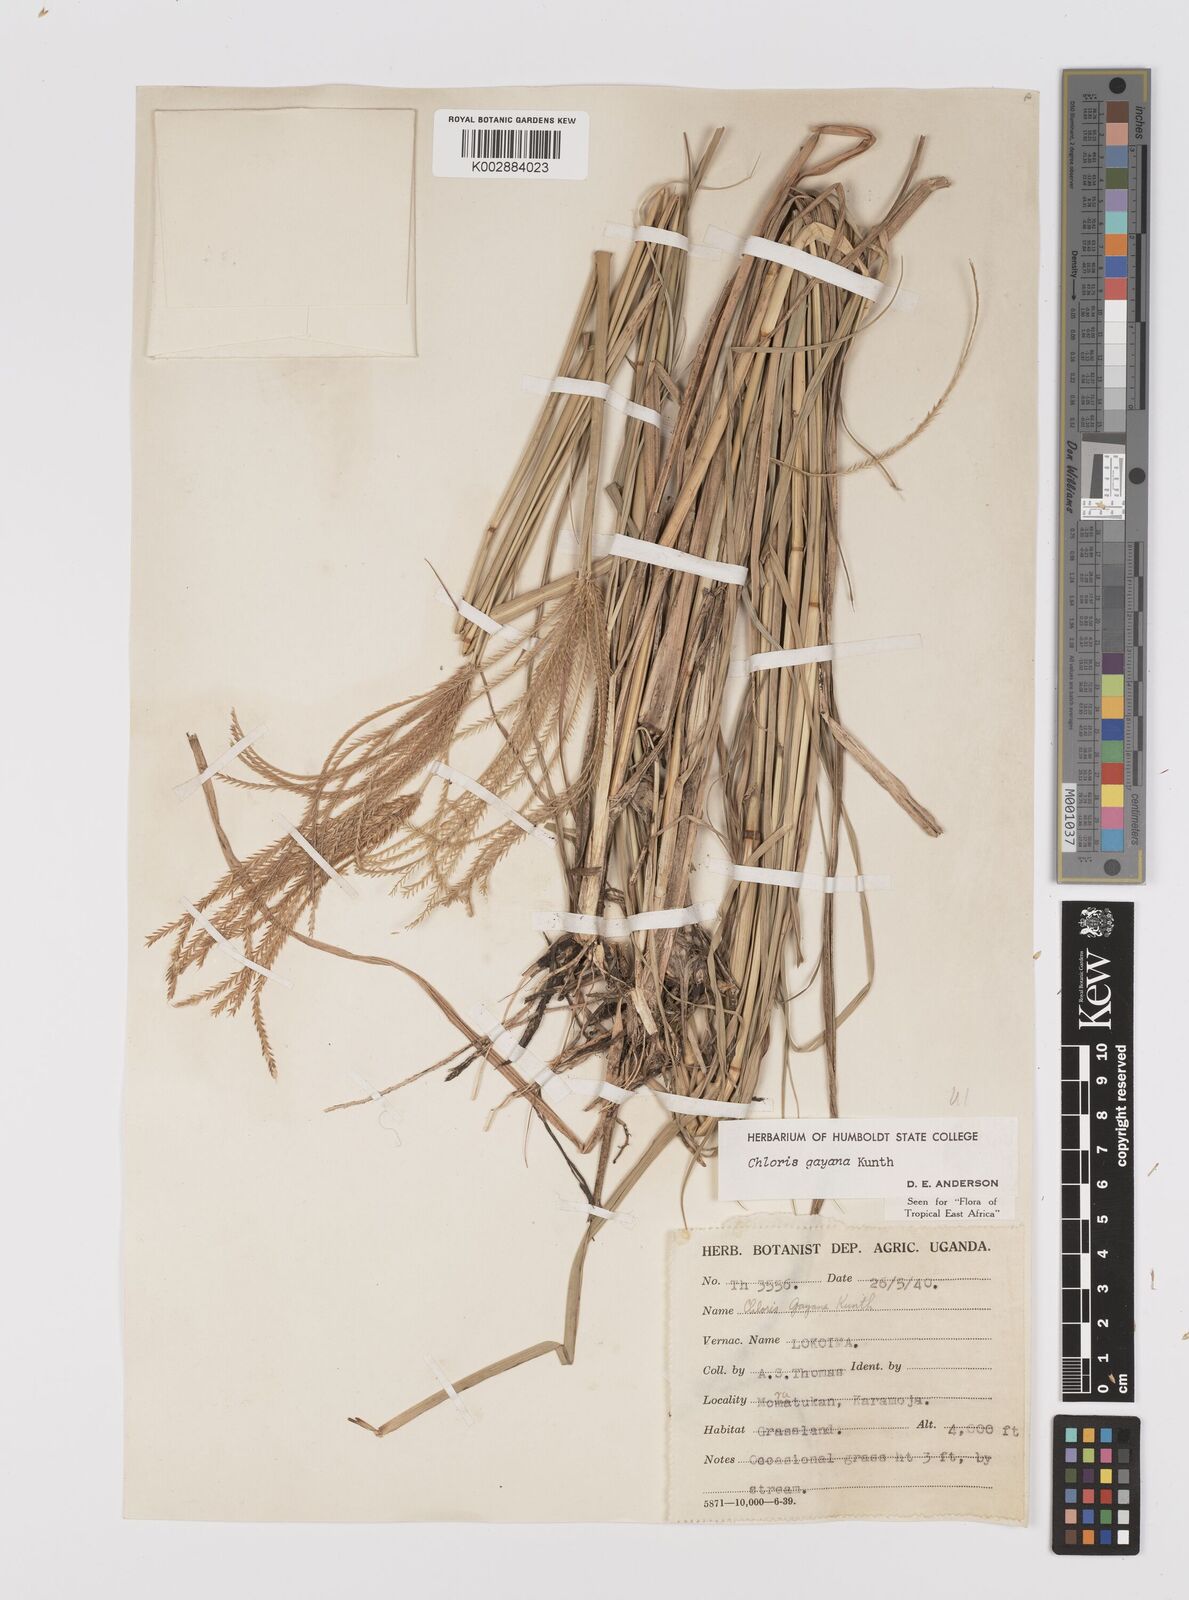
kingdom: Plantae
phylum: Tracheophyta
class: Liliopsida
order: Poales
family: Poaceae
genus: Chloris
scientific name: Chloris gayana
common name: Rhodes grass
